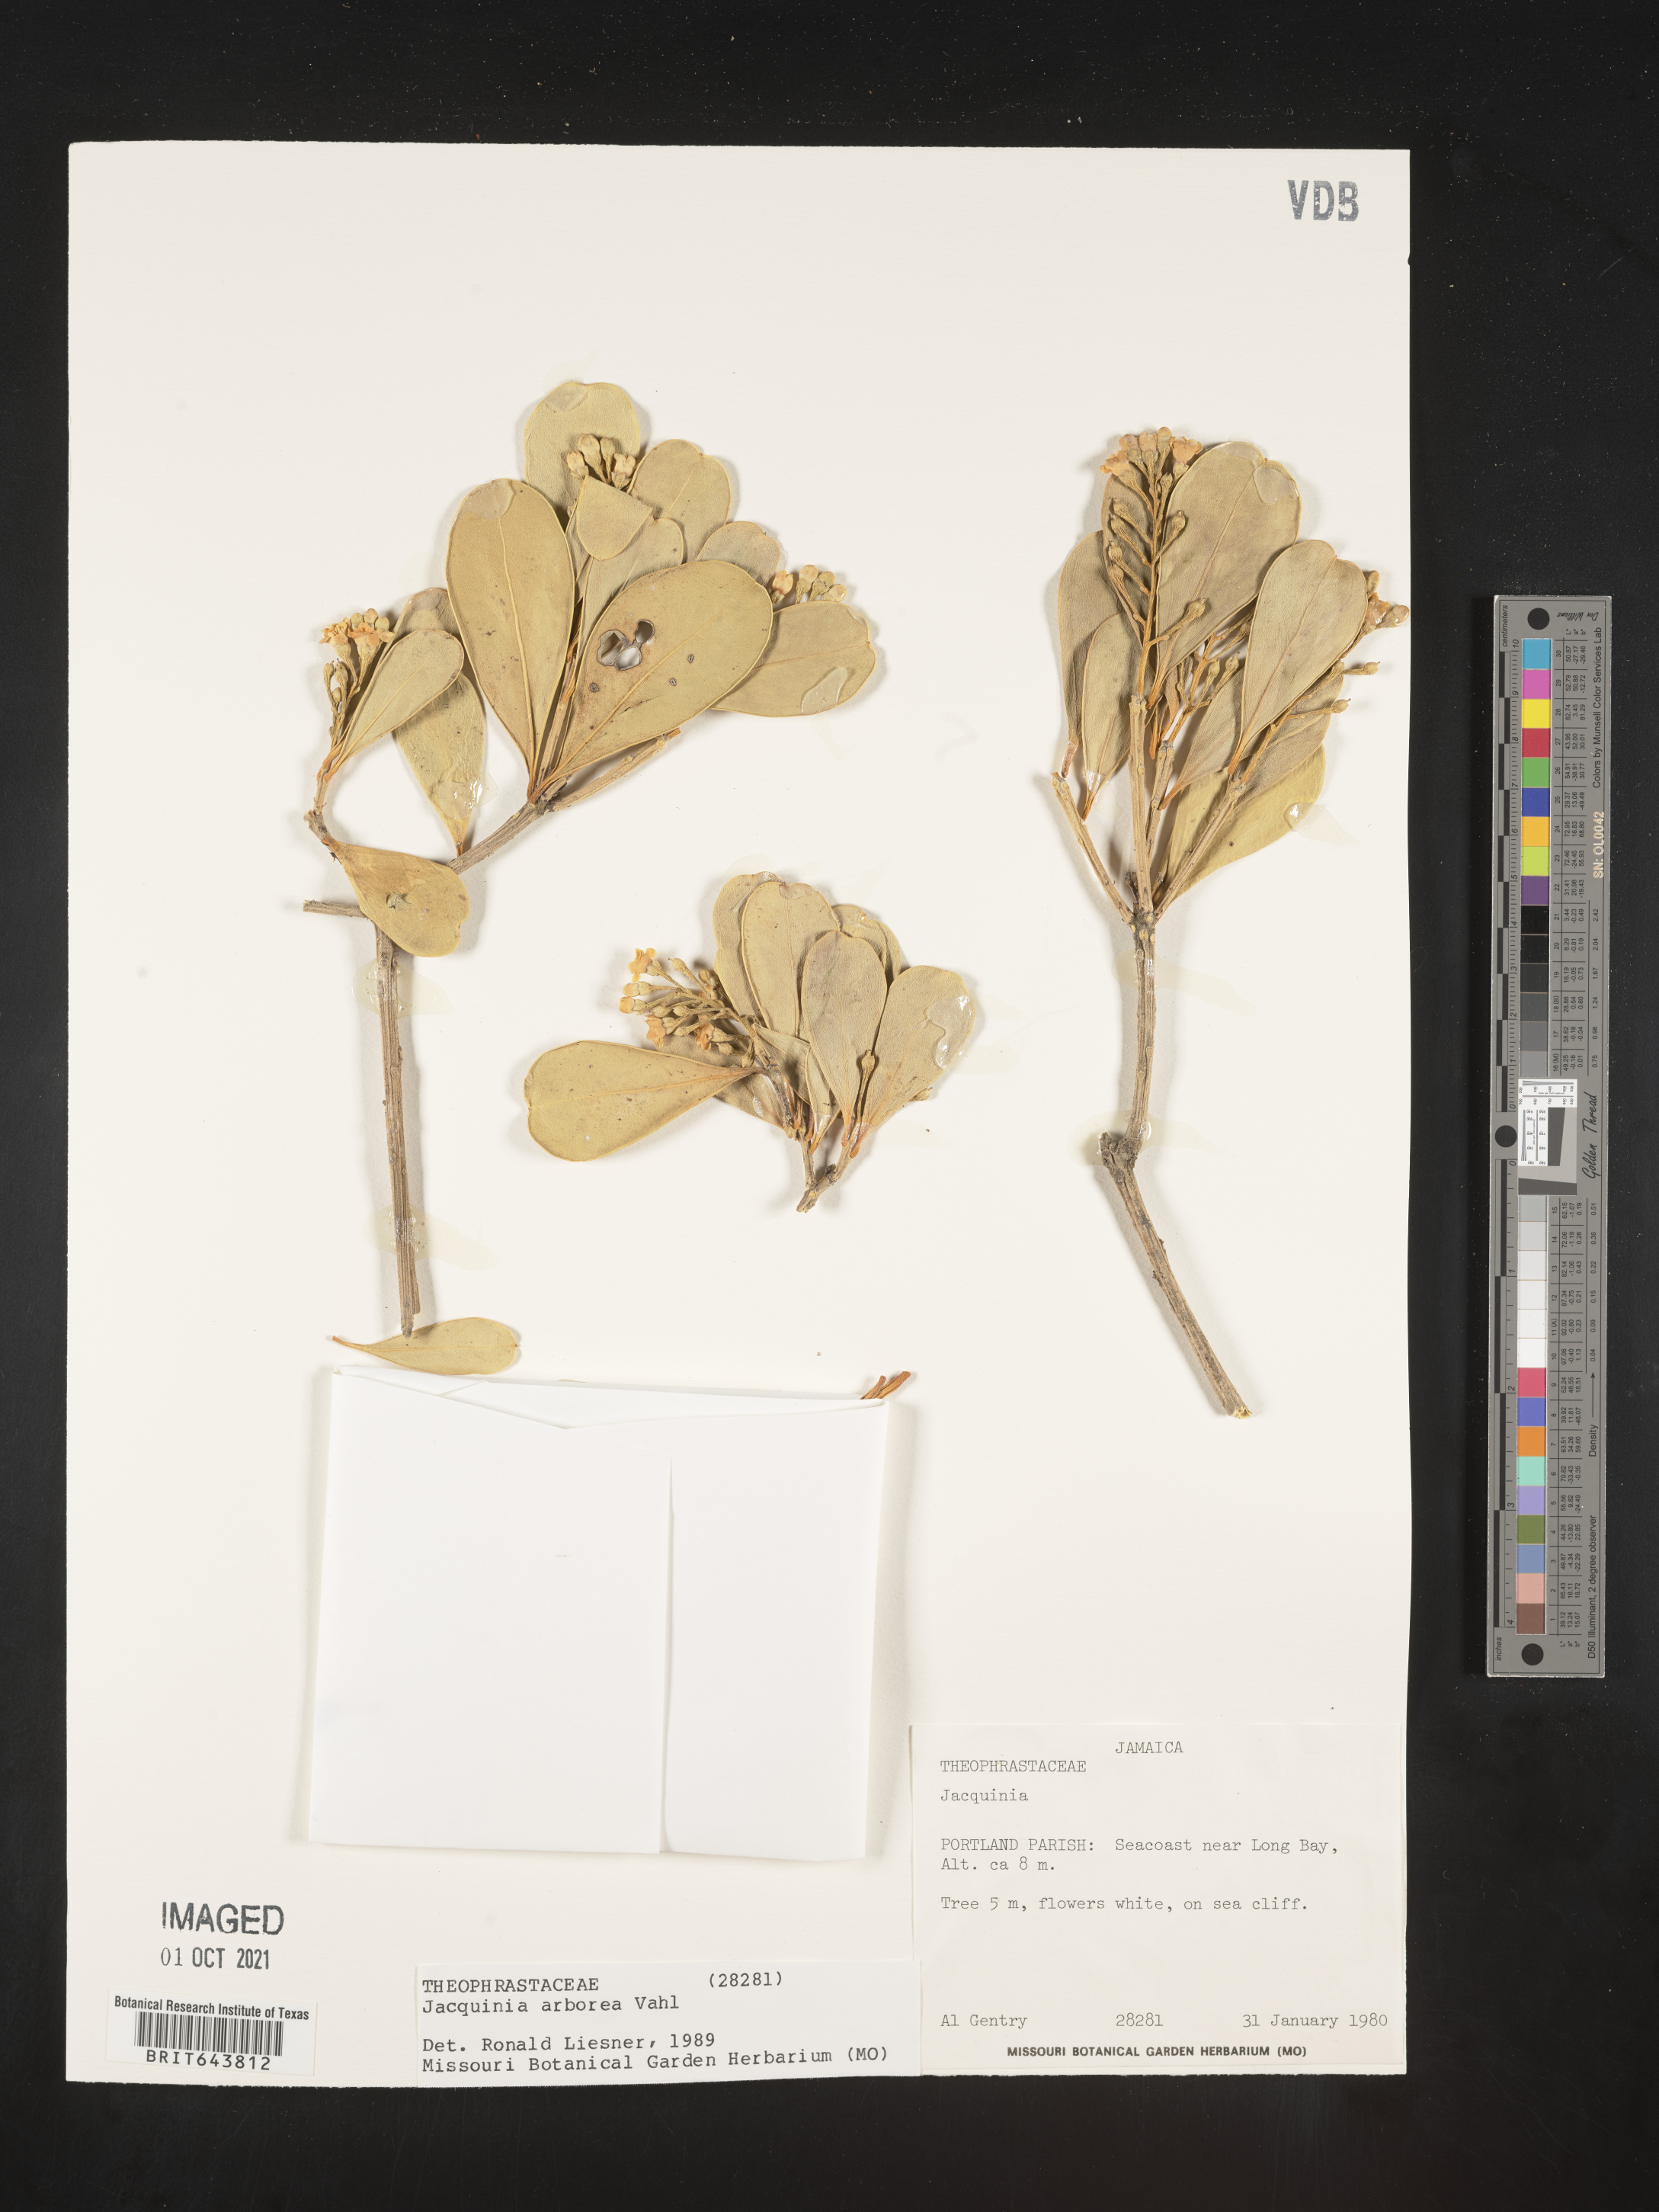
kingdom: Plantae
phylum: Tracheophyta
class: Magnoliopsida
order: Ericales
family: Primulaceae
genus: Jacquinia
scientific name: Jacquinia
